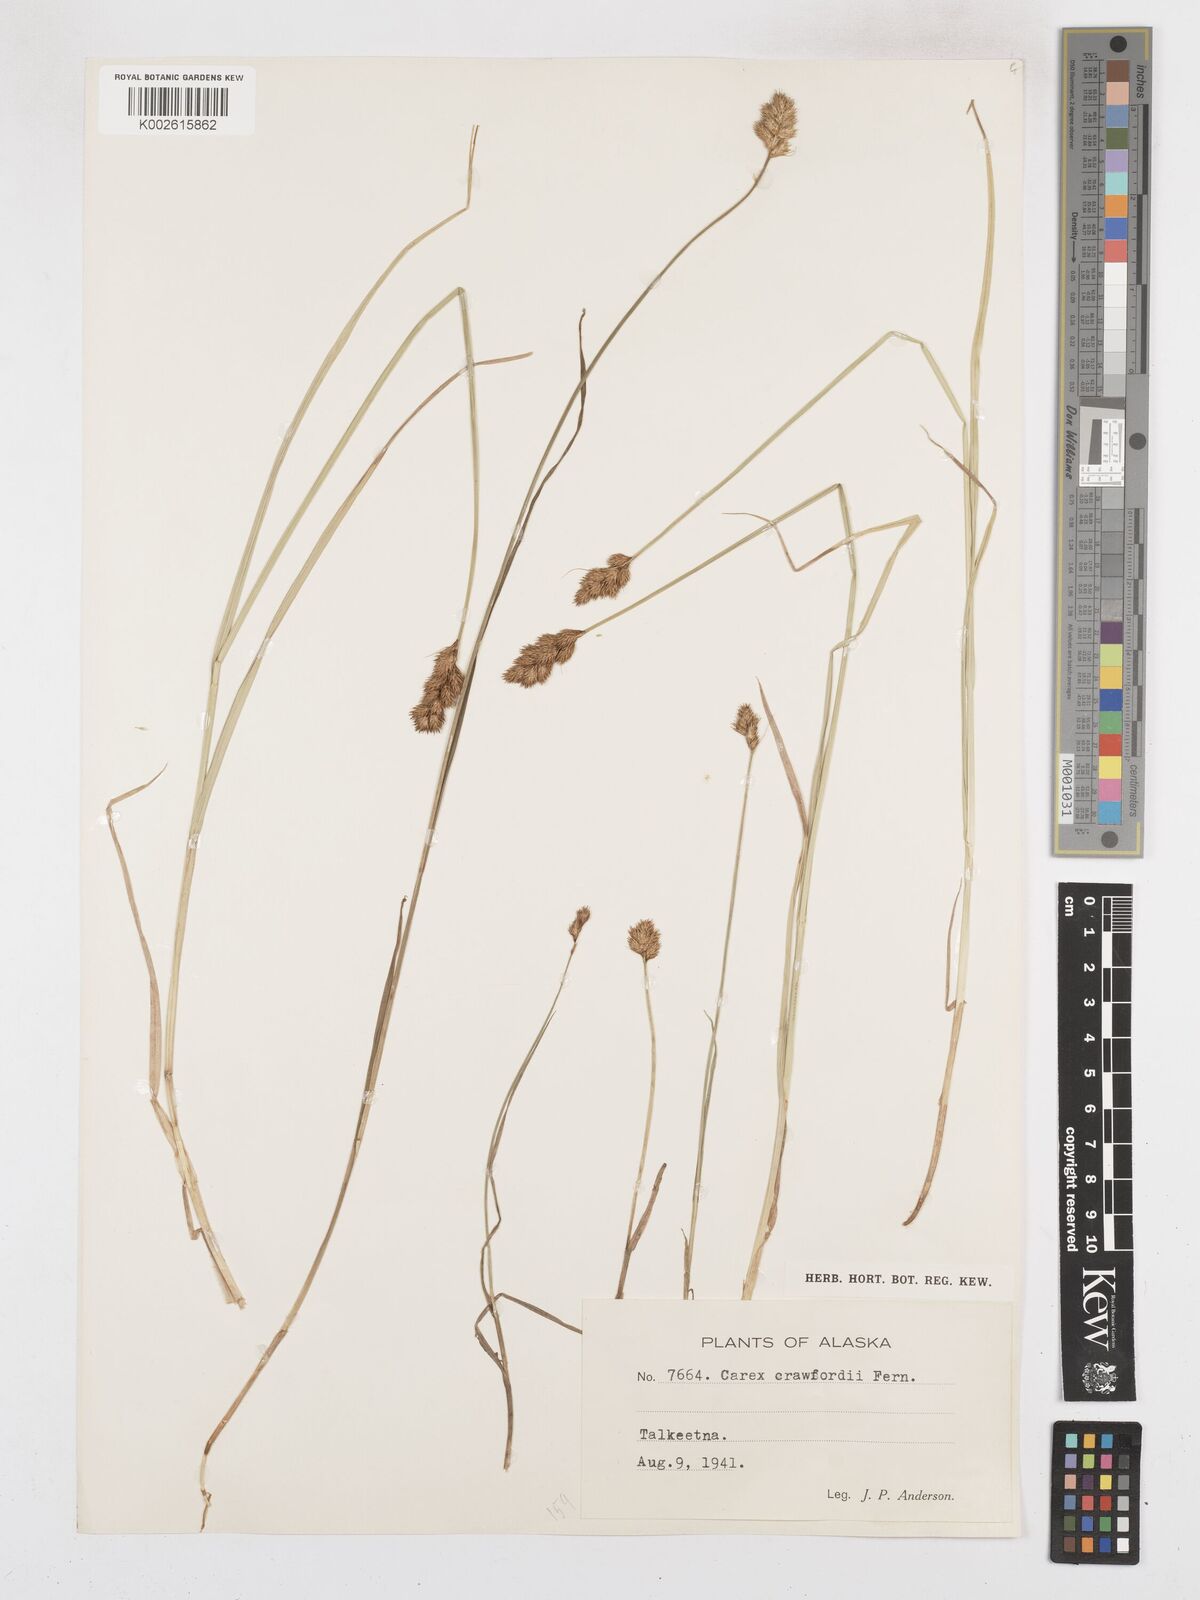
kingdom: Plantae
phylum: Tracheophyta
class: Liliopsida
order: Poales
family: Cyperaceae
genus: Carex
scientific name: Carex crawfordii
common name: Crawford's sedge
